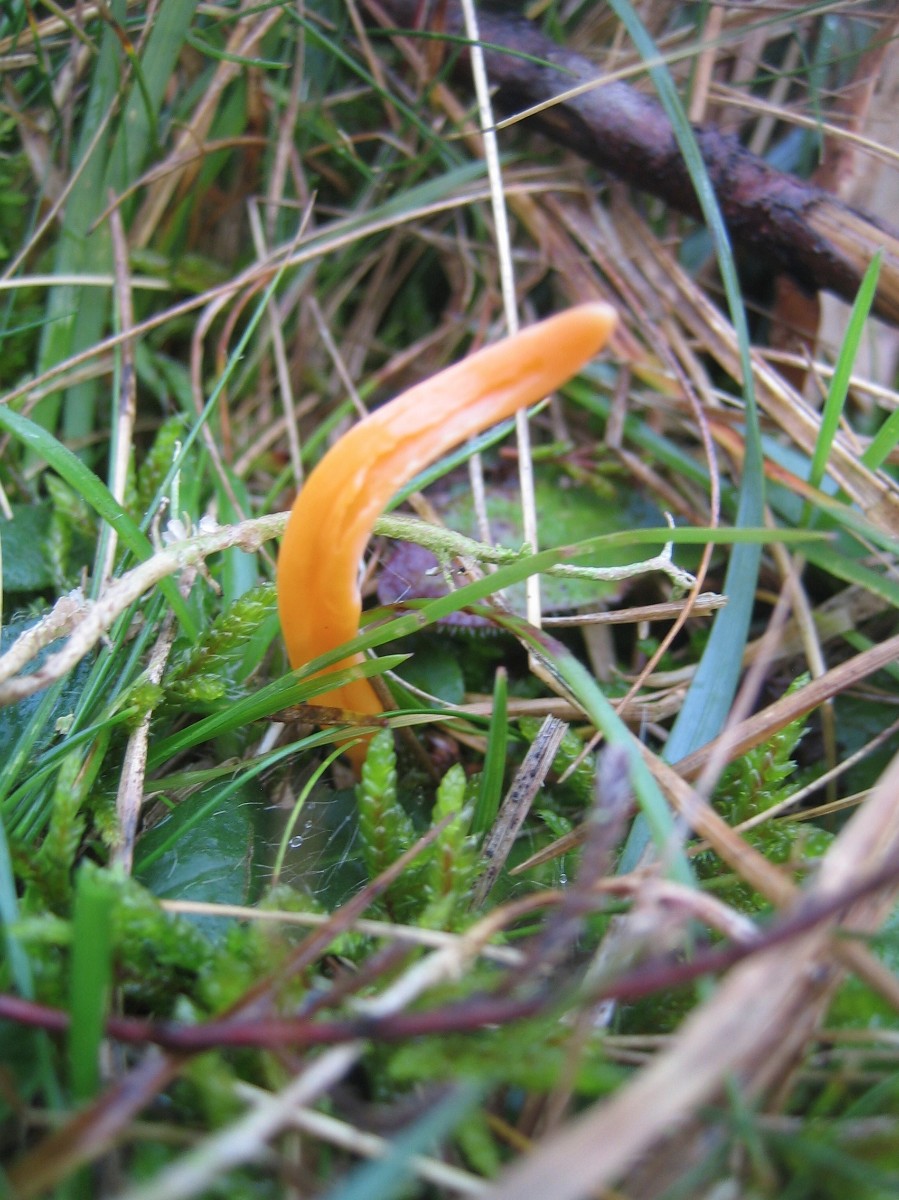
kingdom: Fungi
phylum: Basidiomycota
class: Agaricomycetes
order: Agaricales
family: Clavariaceae
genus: Clavulinopsis
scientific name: Clavulinopsis luteoalba
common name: abrikos-køllesvamp
